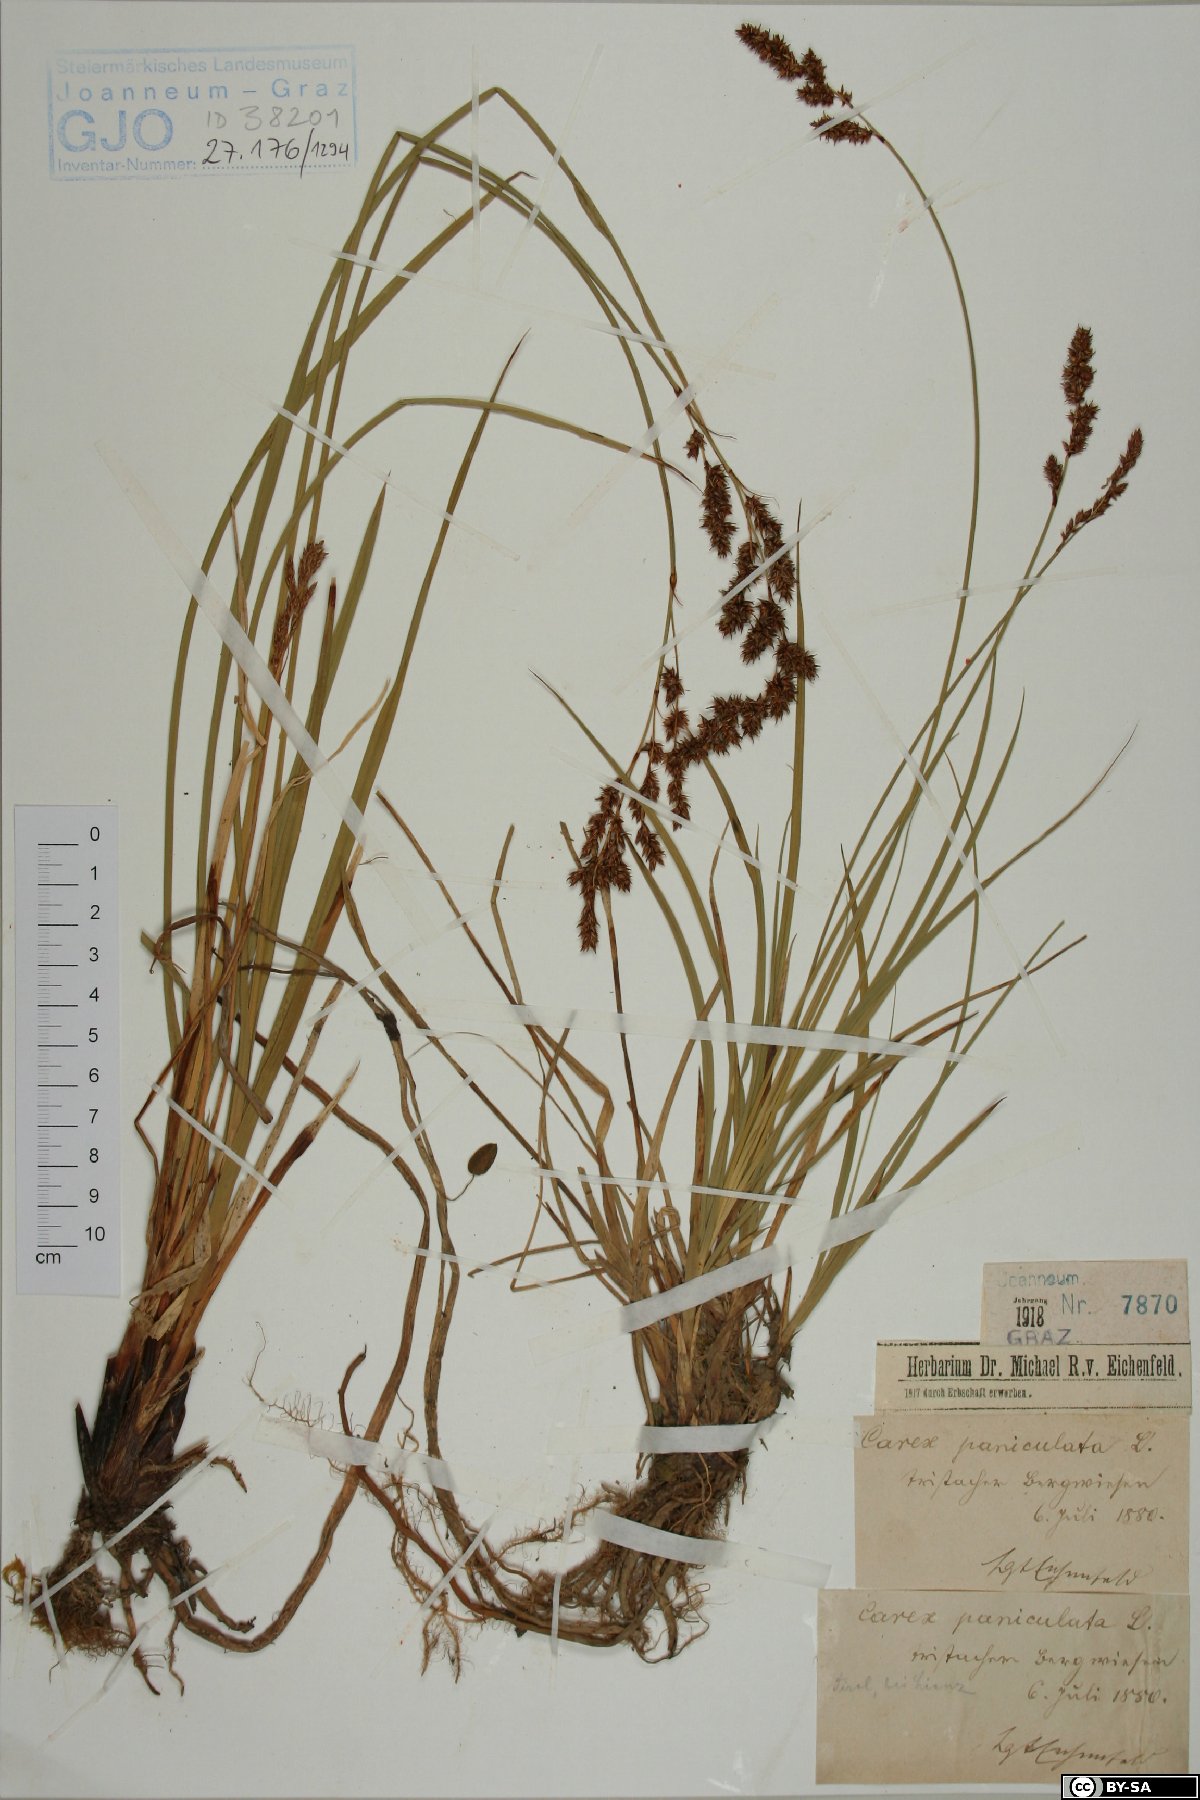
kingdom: Plantae
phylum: Tracheophyta
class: Liliopsida
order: Poales
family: Cyperaceae
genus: Carex
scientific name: Carex paniculata
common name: Greater tussock-sedge
